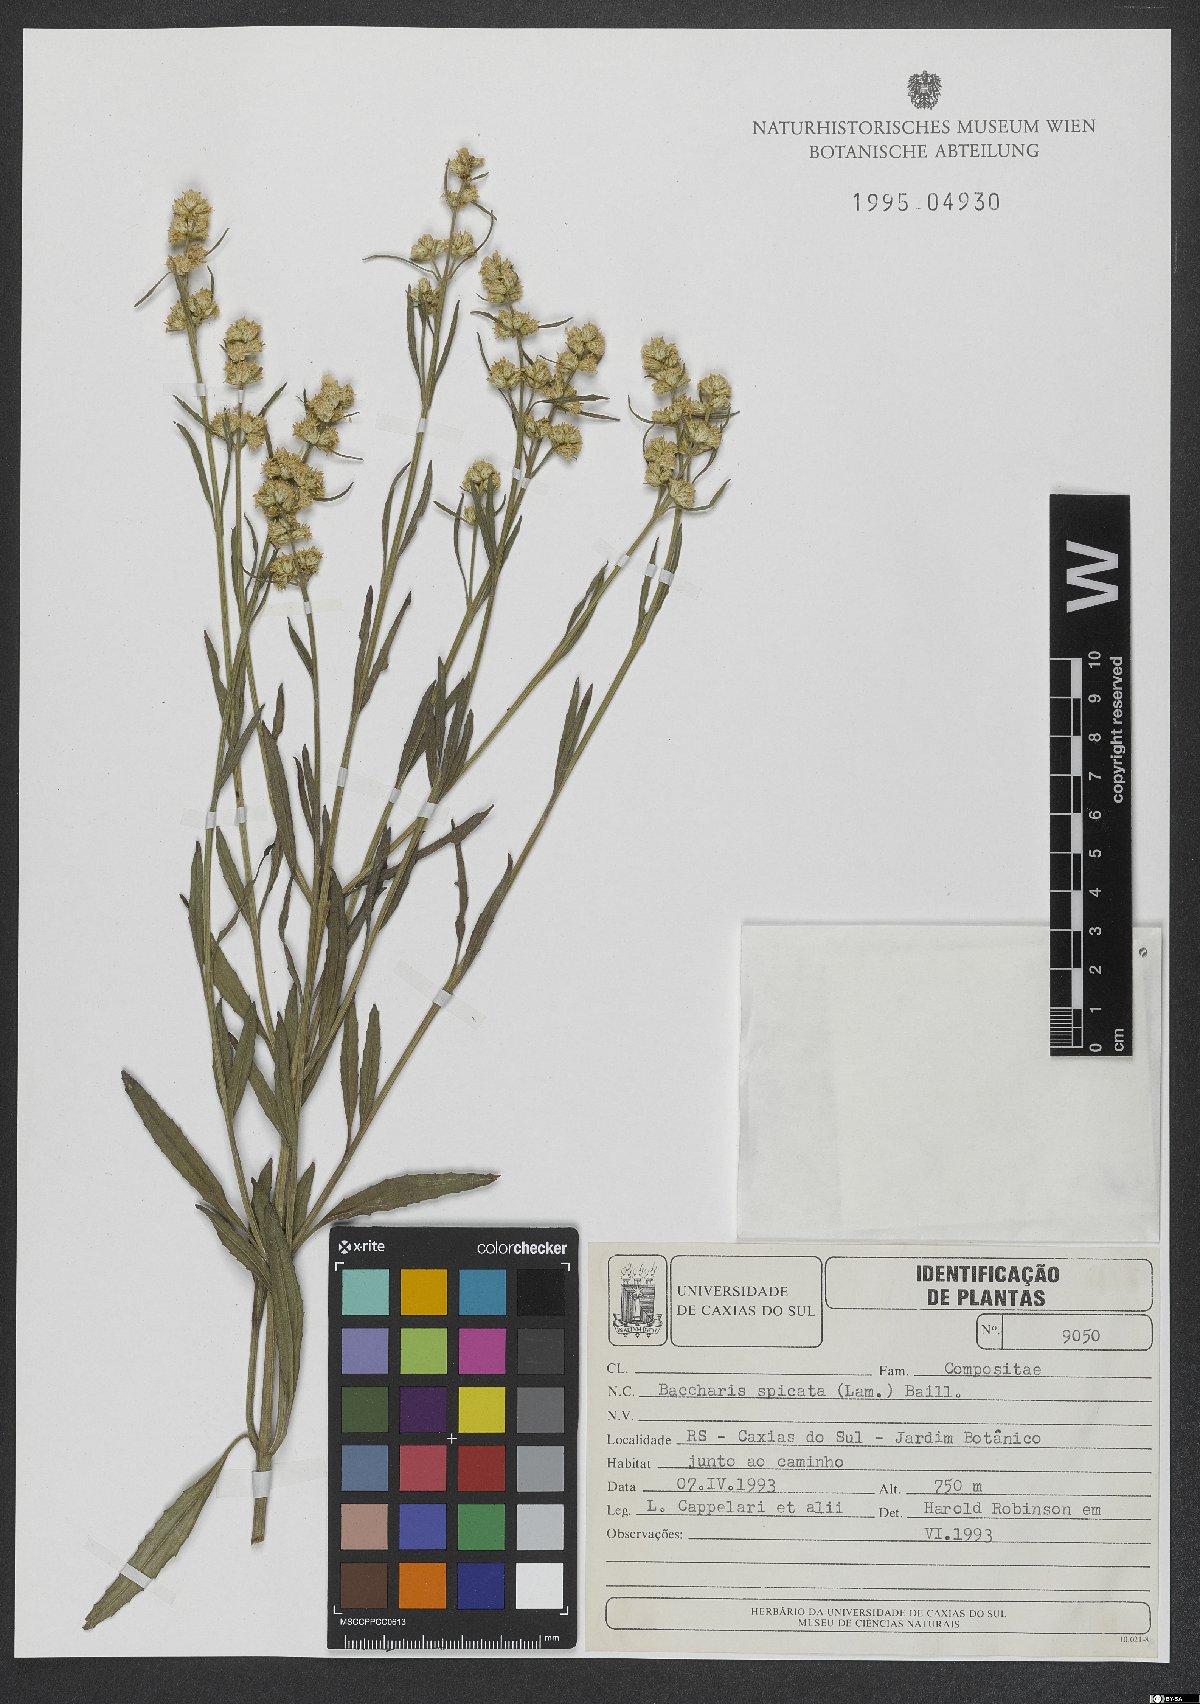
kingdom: Plantae
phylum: Tracheophyta
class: Magnoliopsida
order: Asterales
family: Asteraceae
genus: Baccharis
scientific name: Baccharis spicata
